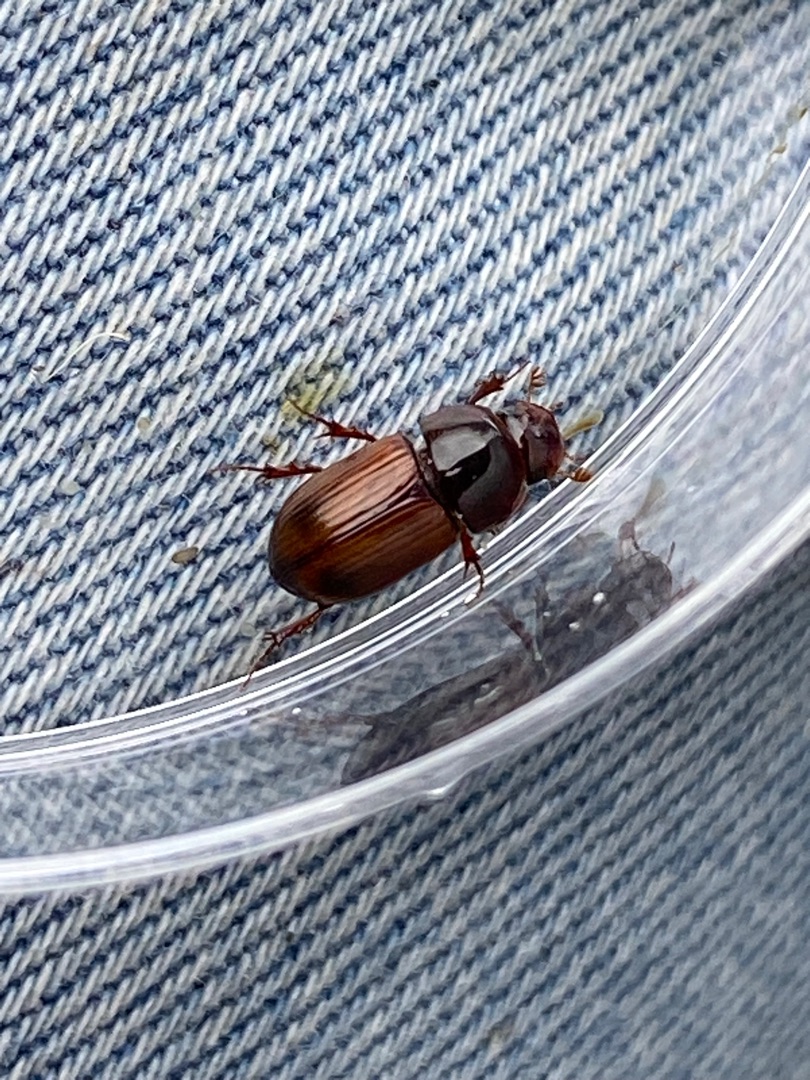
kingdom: Animalia
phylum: Arthropoda
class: Insecta
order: Coleoptera
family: Scarabaeidae
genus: Bodilopsis
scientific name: Bodilopsis rufus
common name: Mahognibrun møgbille
